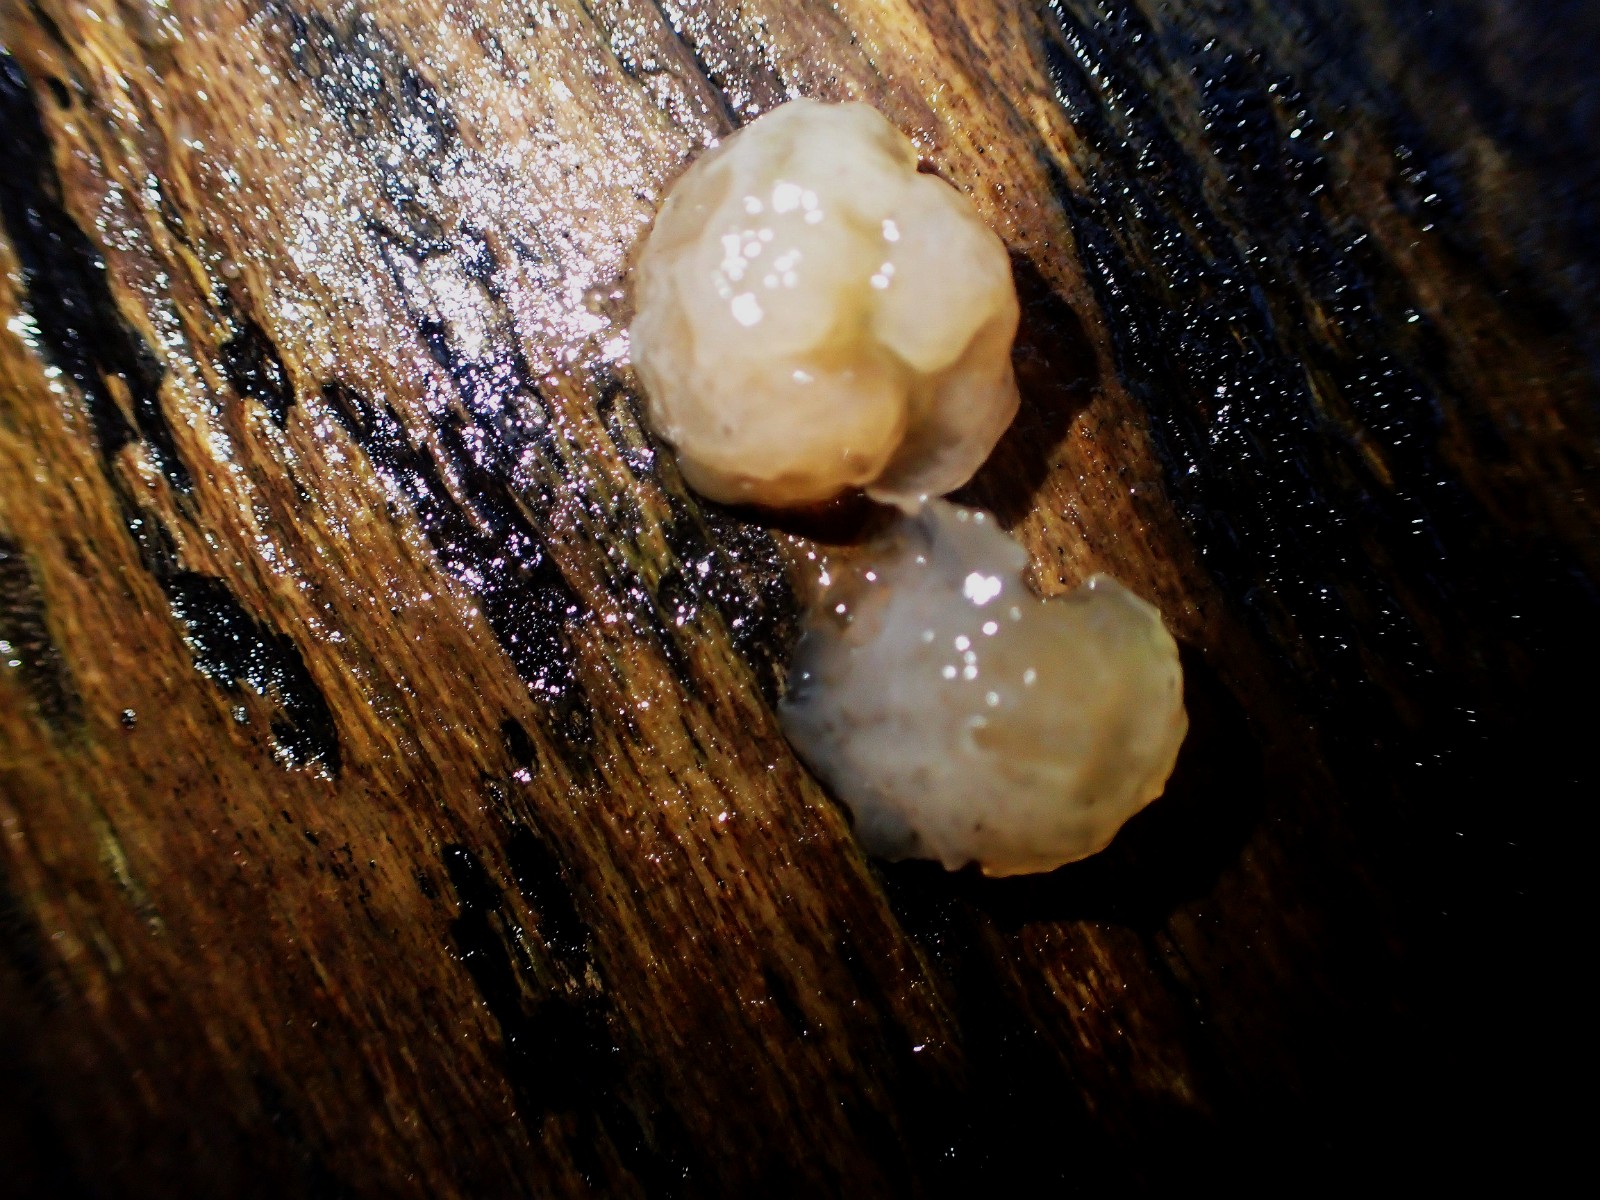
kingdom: Fungi
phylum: Basidiomycota
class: Agaricomycetes
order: Auriculariales
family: Auriculariaceae
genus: Exidia
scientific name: Exidia thuretiana
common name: hvidlig bævretop
